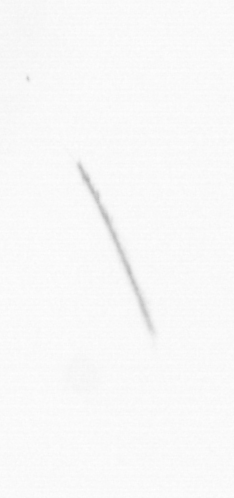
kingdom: Chromista
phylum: Ochrophyta
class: Bacillariophyceae
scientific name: Bacillariophyceae
